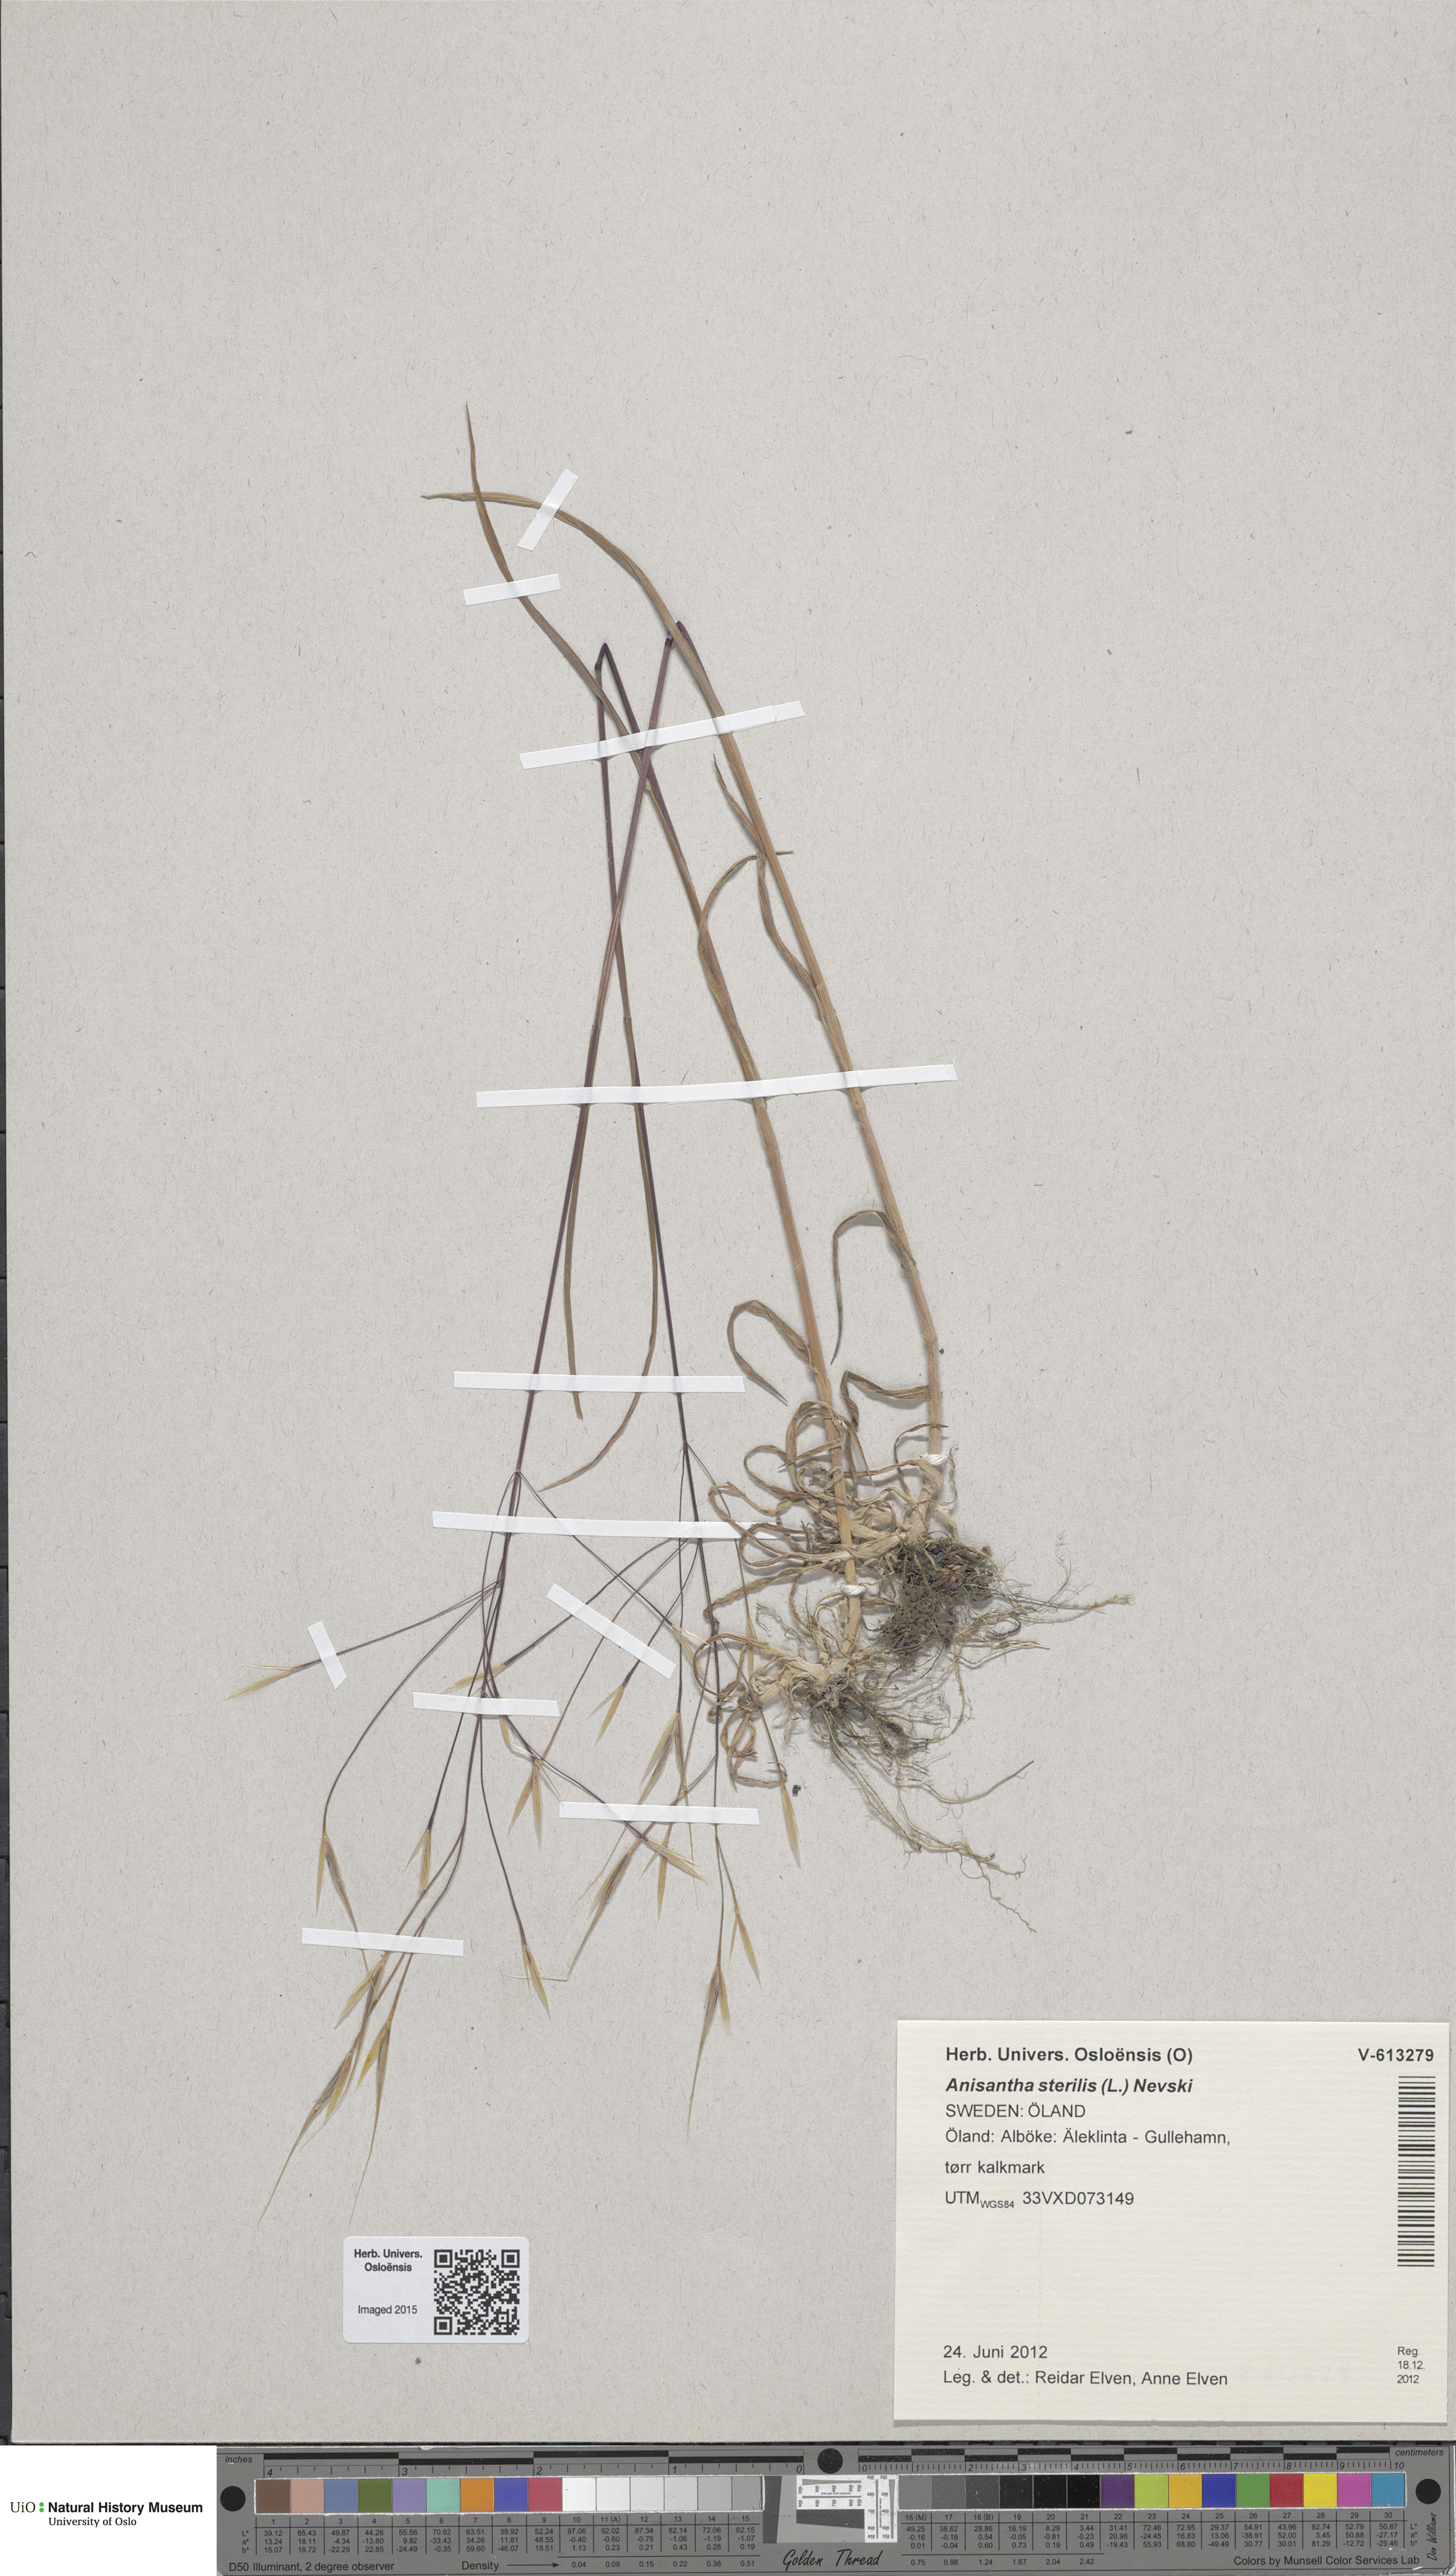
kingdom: Plantae
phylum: Tracheophyta
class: Liliopsida
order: Poales
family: Poaceae
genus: Bromus
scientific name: Bromus sterilis
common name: Poverty brome
